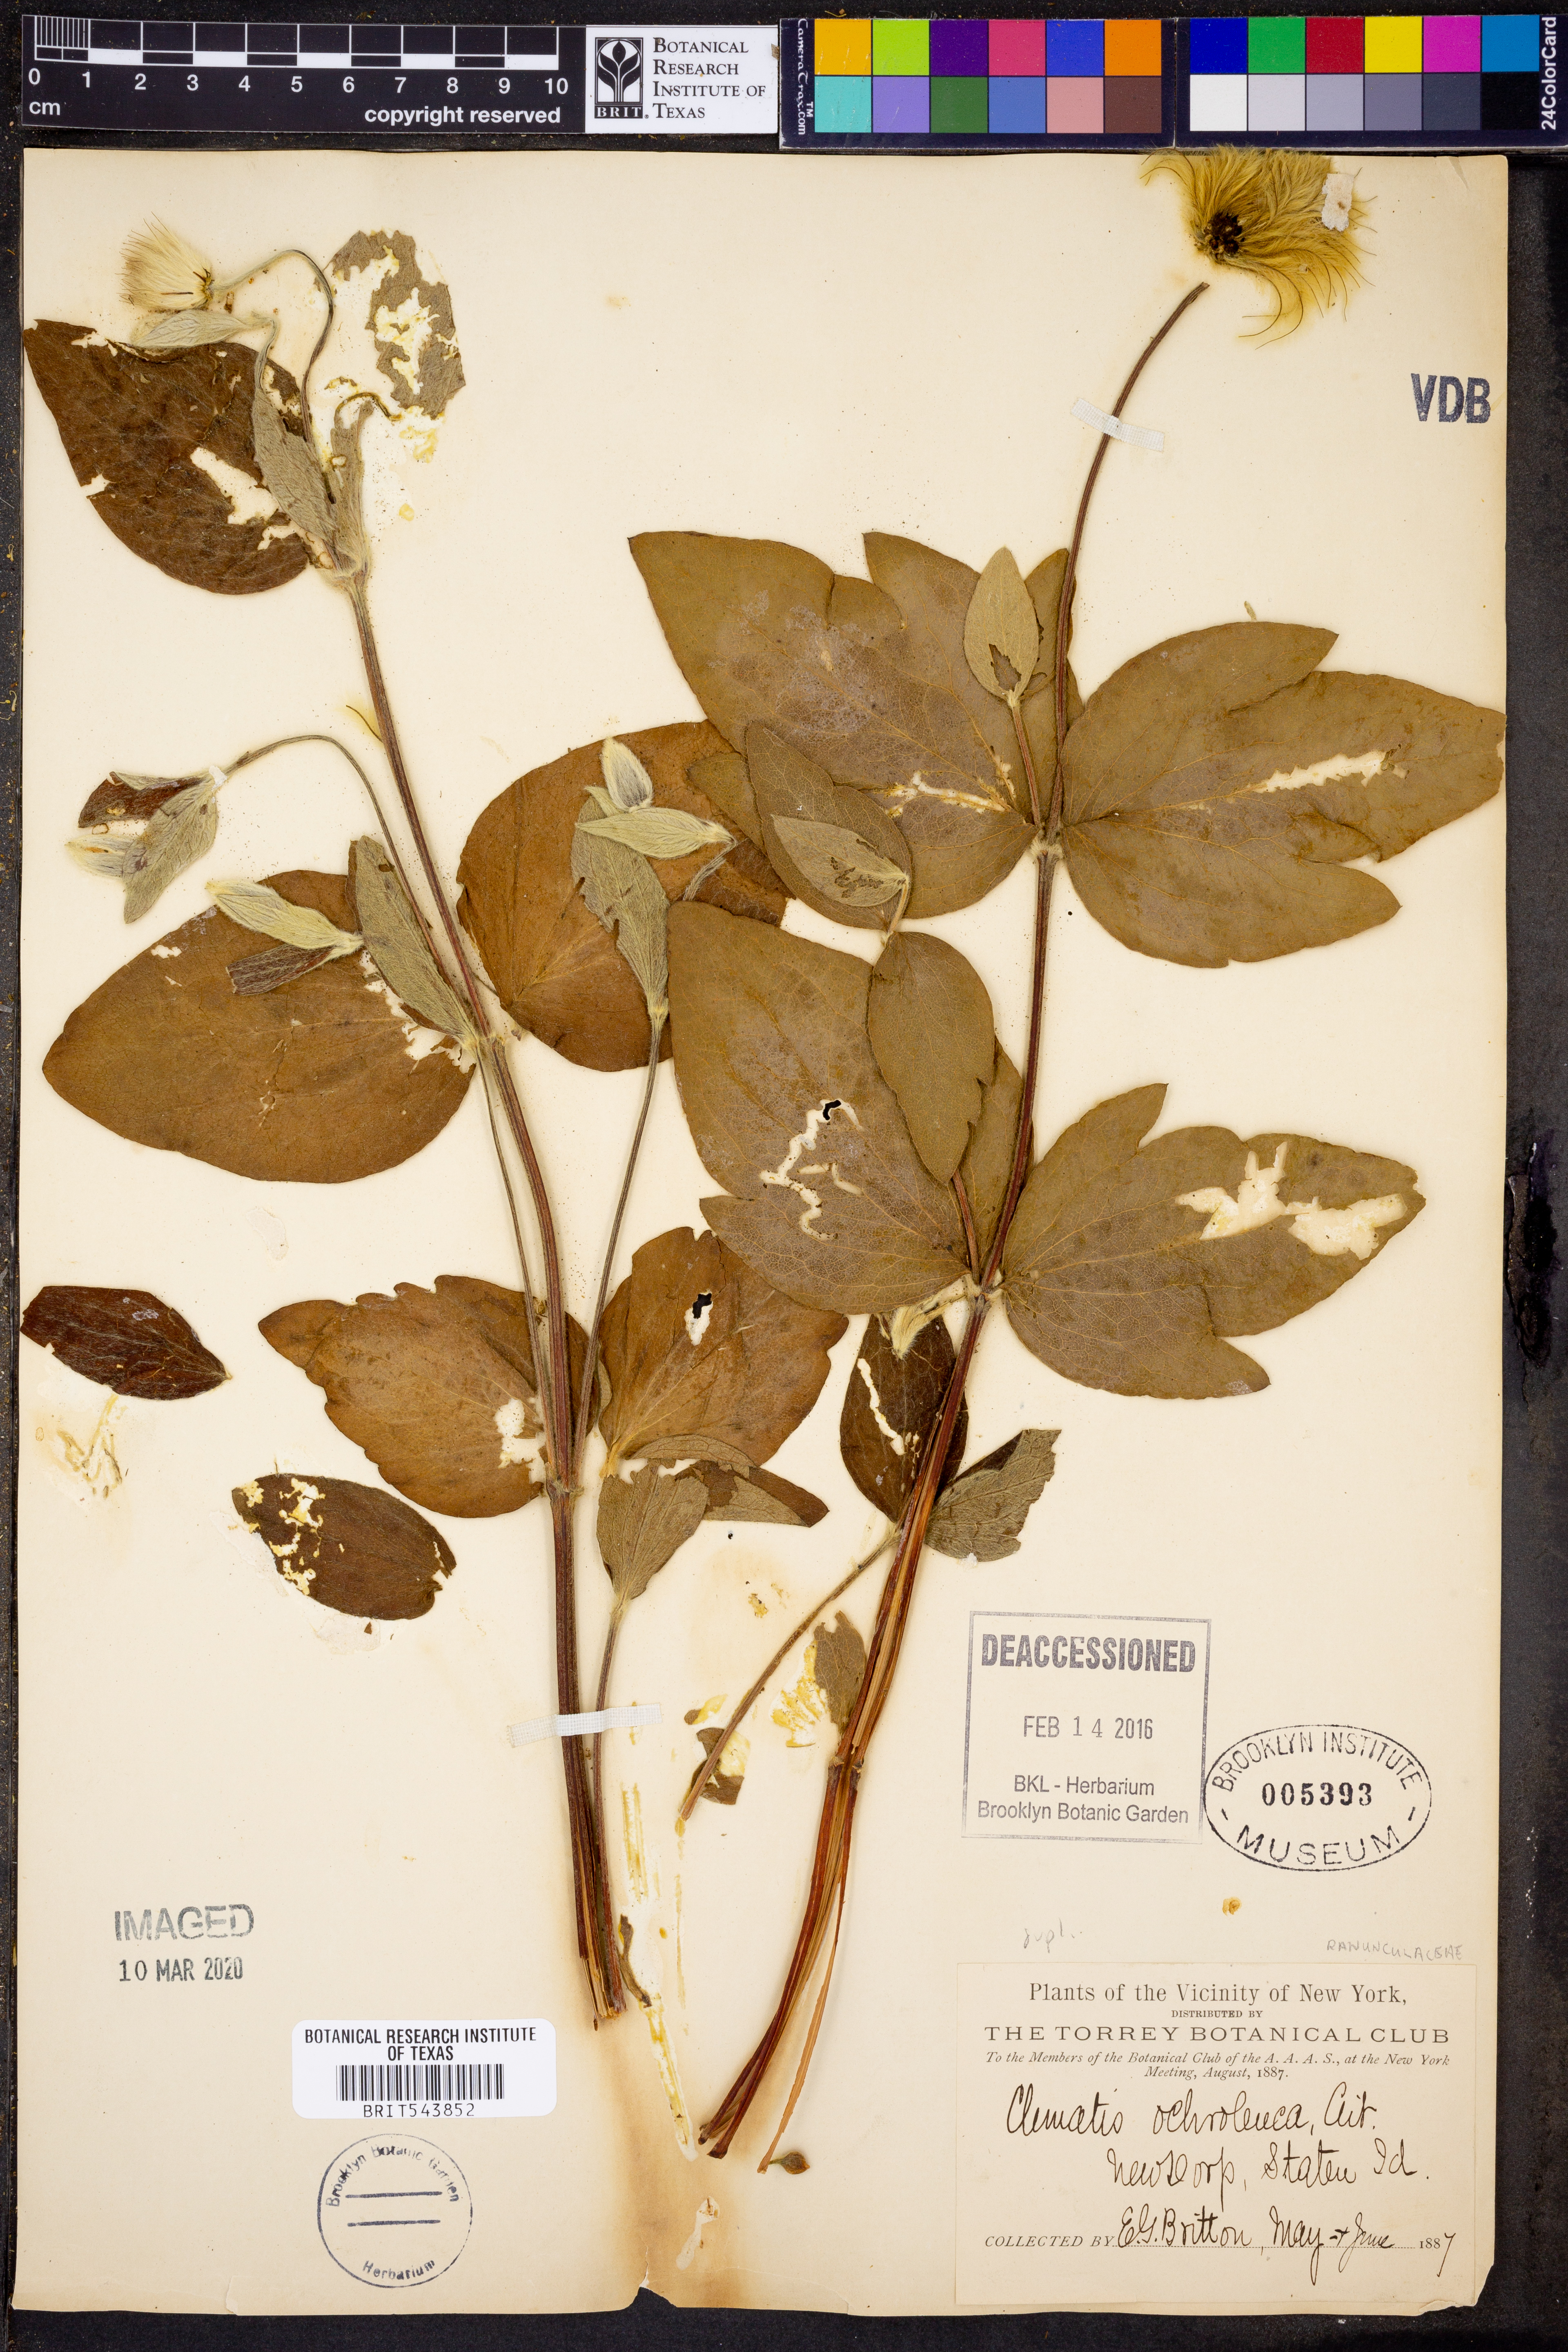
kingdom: Plantae
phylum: Tracheophyta
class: Magnoliopsida
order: Ranunculales
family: Ranunculaceae
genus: Clematis
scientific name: Clematis ochroleuca
